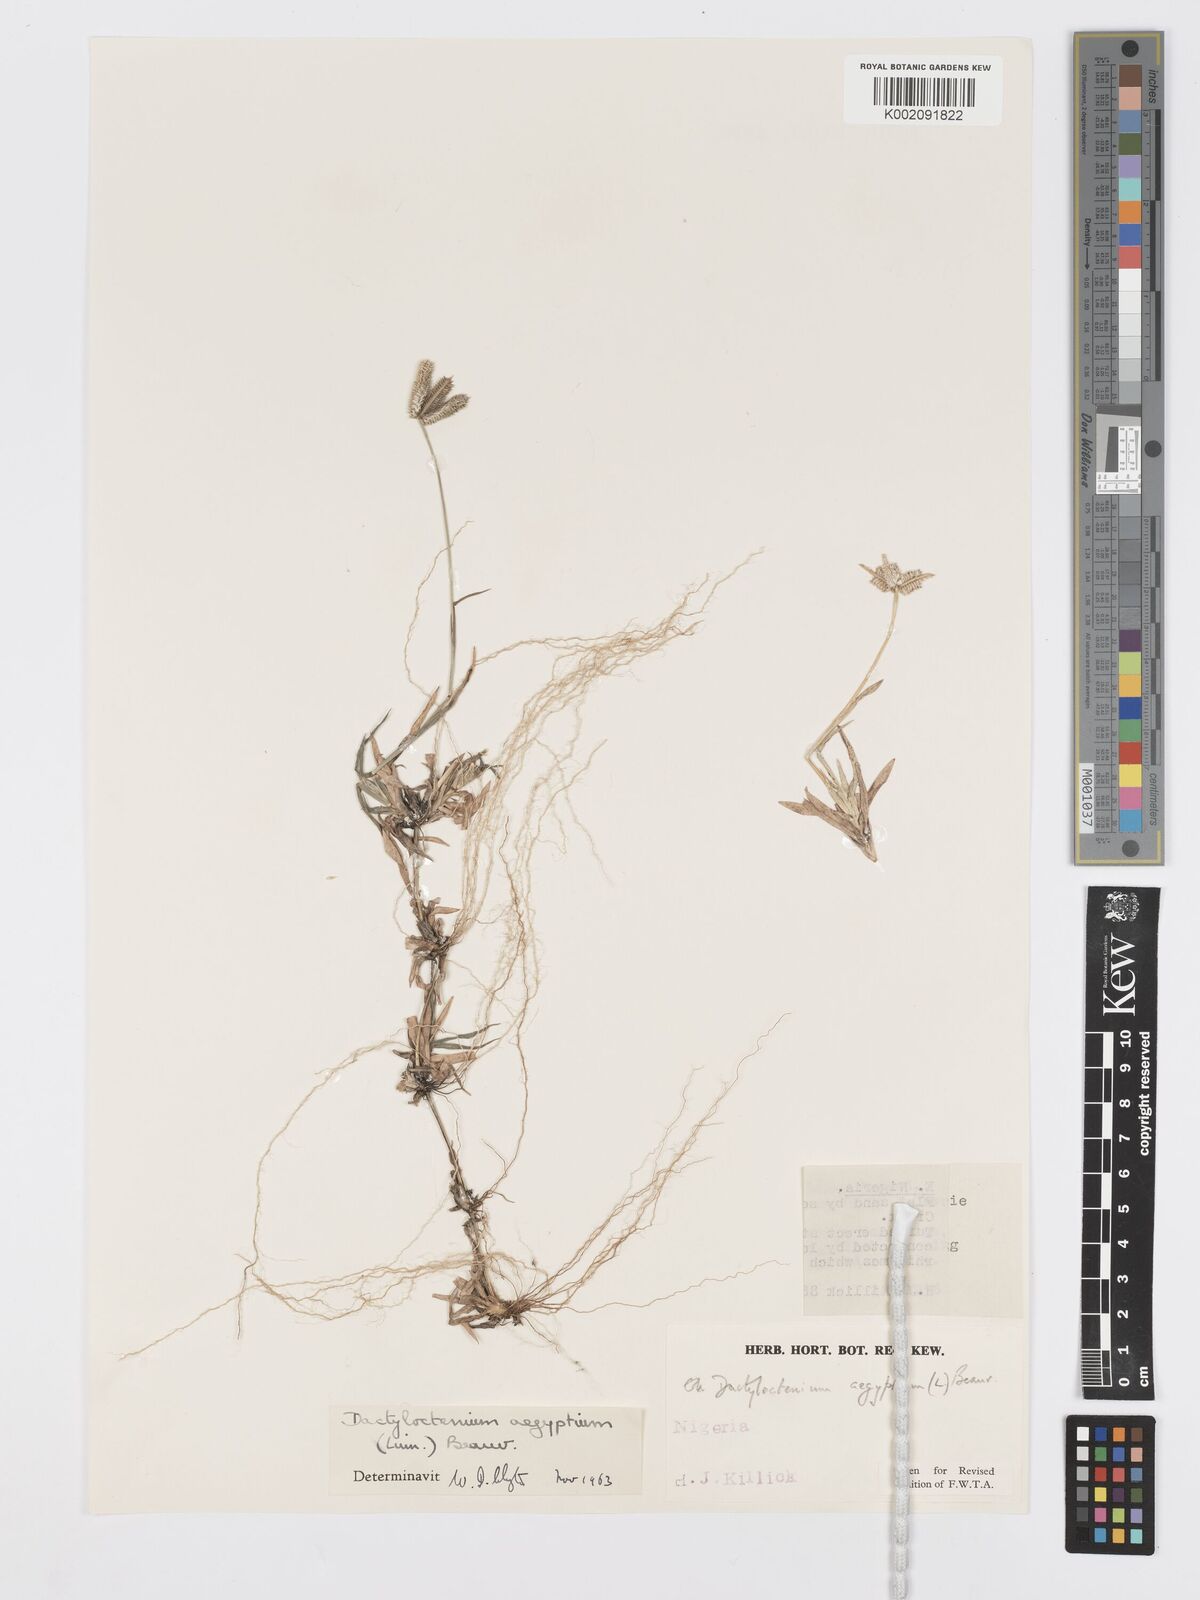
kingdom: Plantae
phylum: Tracheophyta
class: Liliopsida
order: Poales
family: Poaceae
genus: Dactyloctenium
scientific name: Dactyloctenium aegyptium
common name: Egyptian grass
